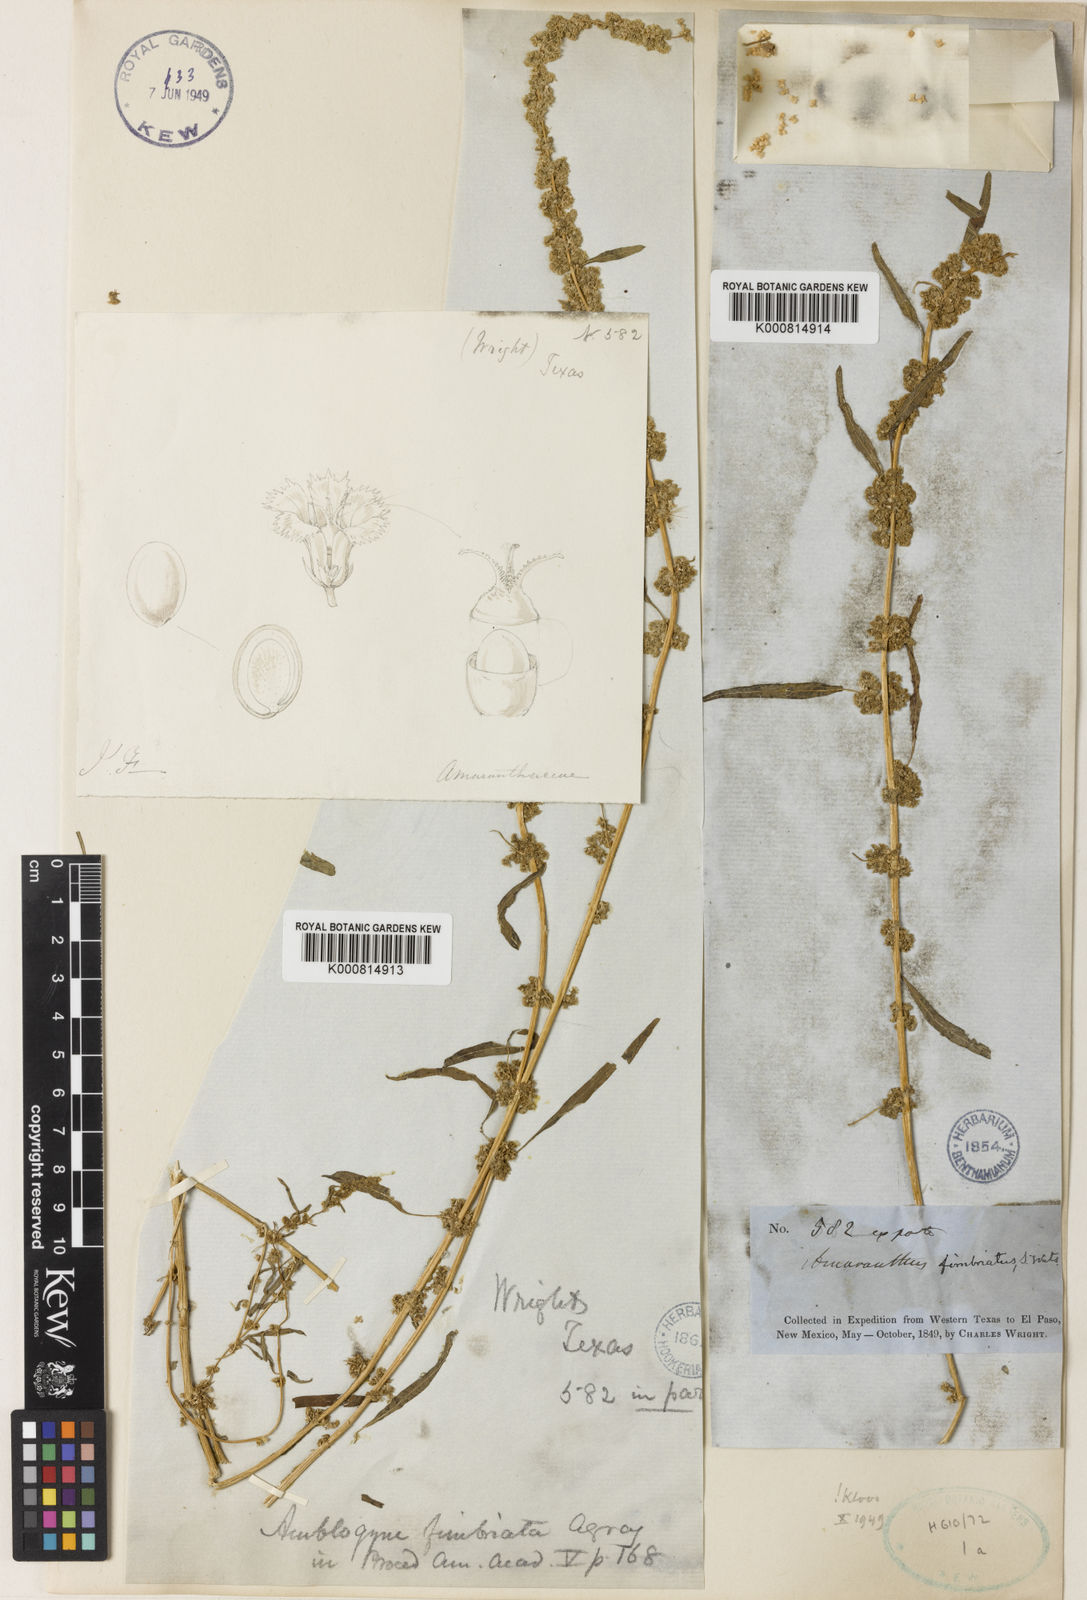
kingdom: Plantae
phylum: Tracheophyta
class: Magnoliopsida
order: Caryophyllales
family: Amaranthaceae
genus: Amaranthus
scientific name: Amaranthus
